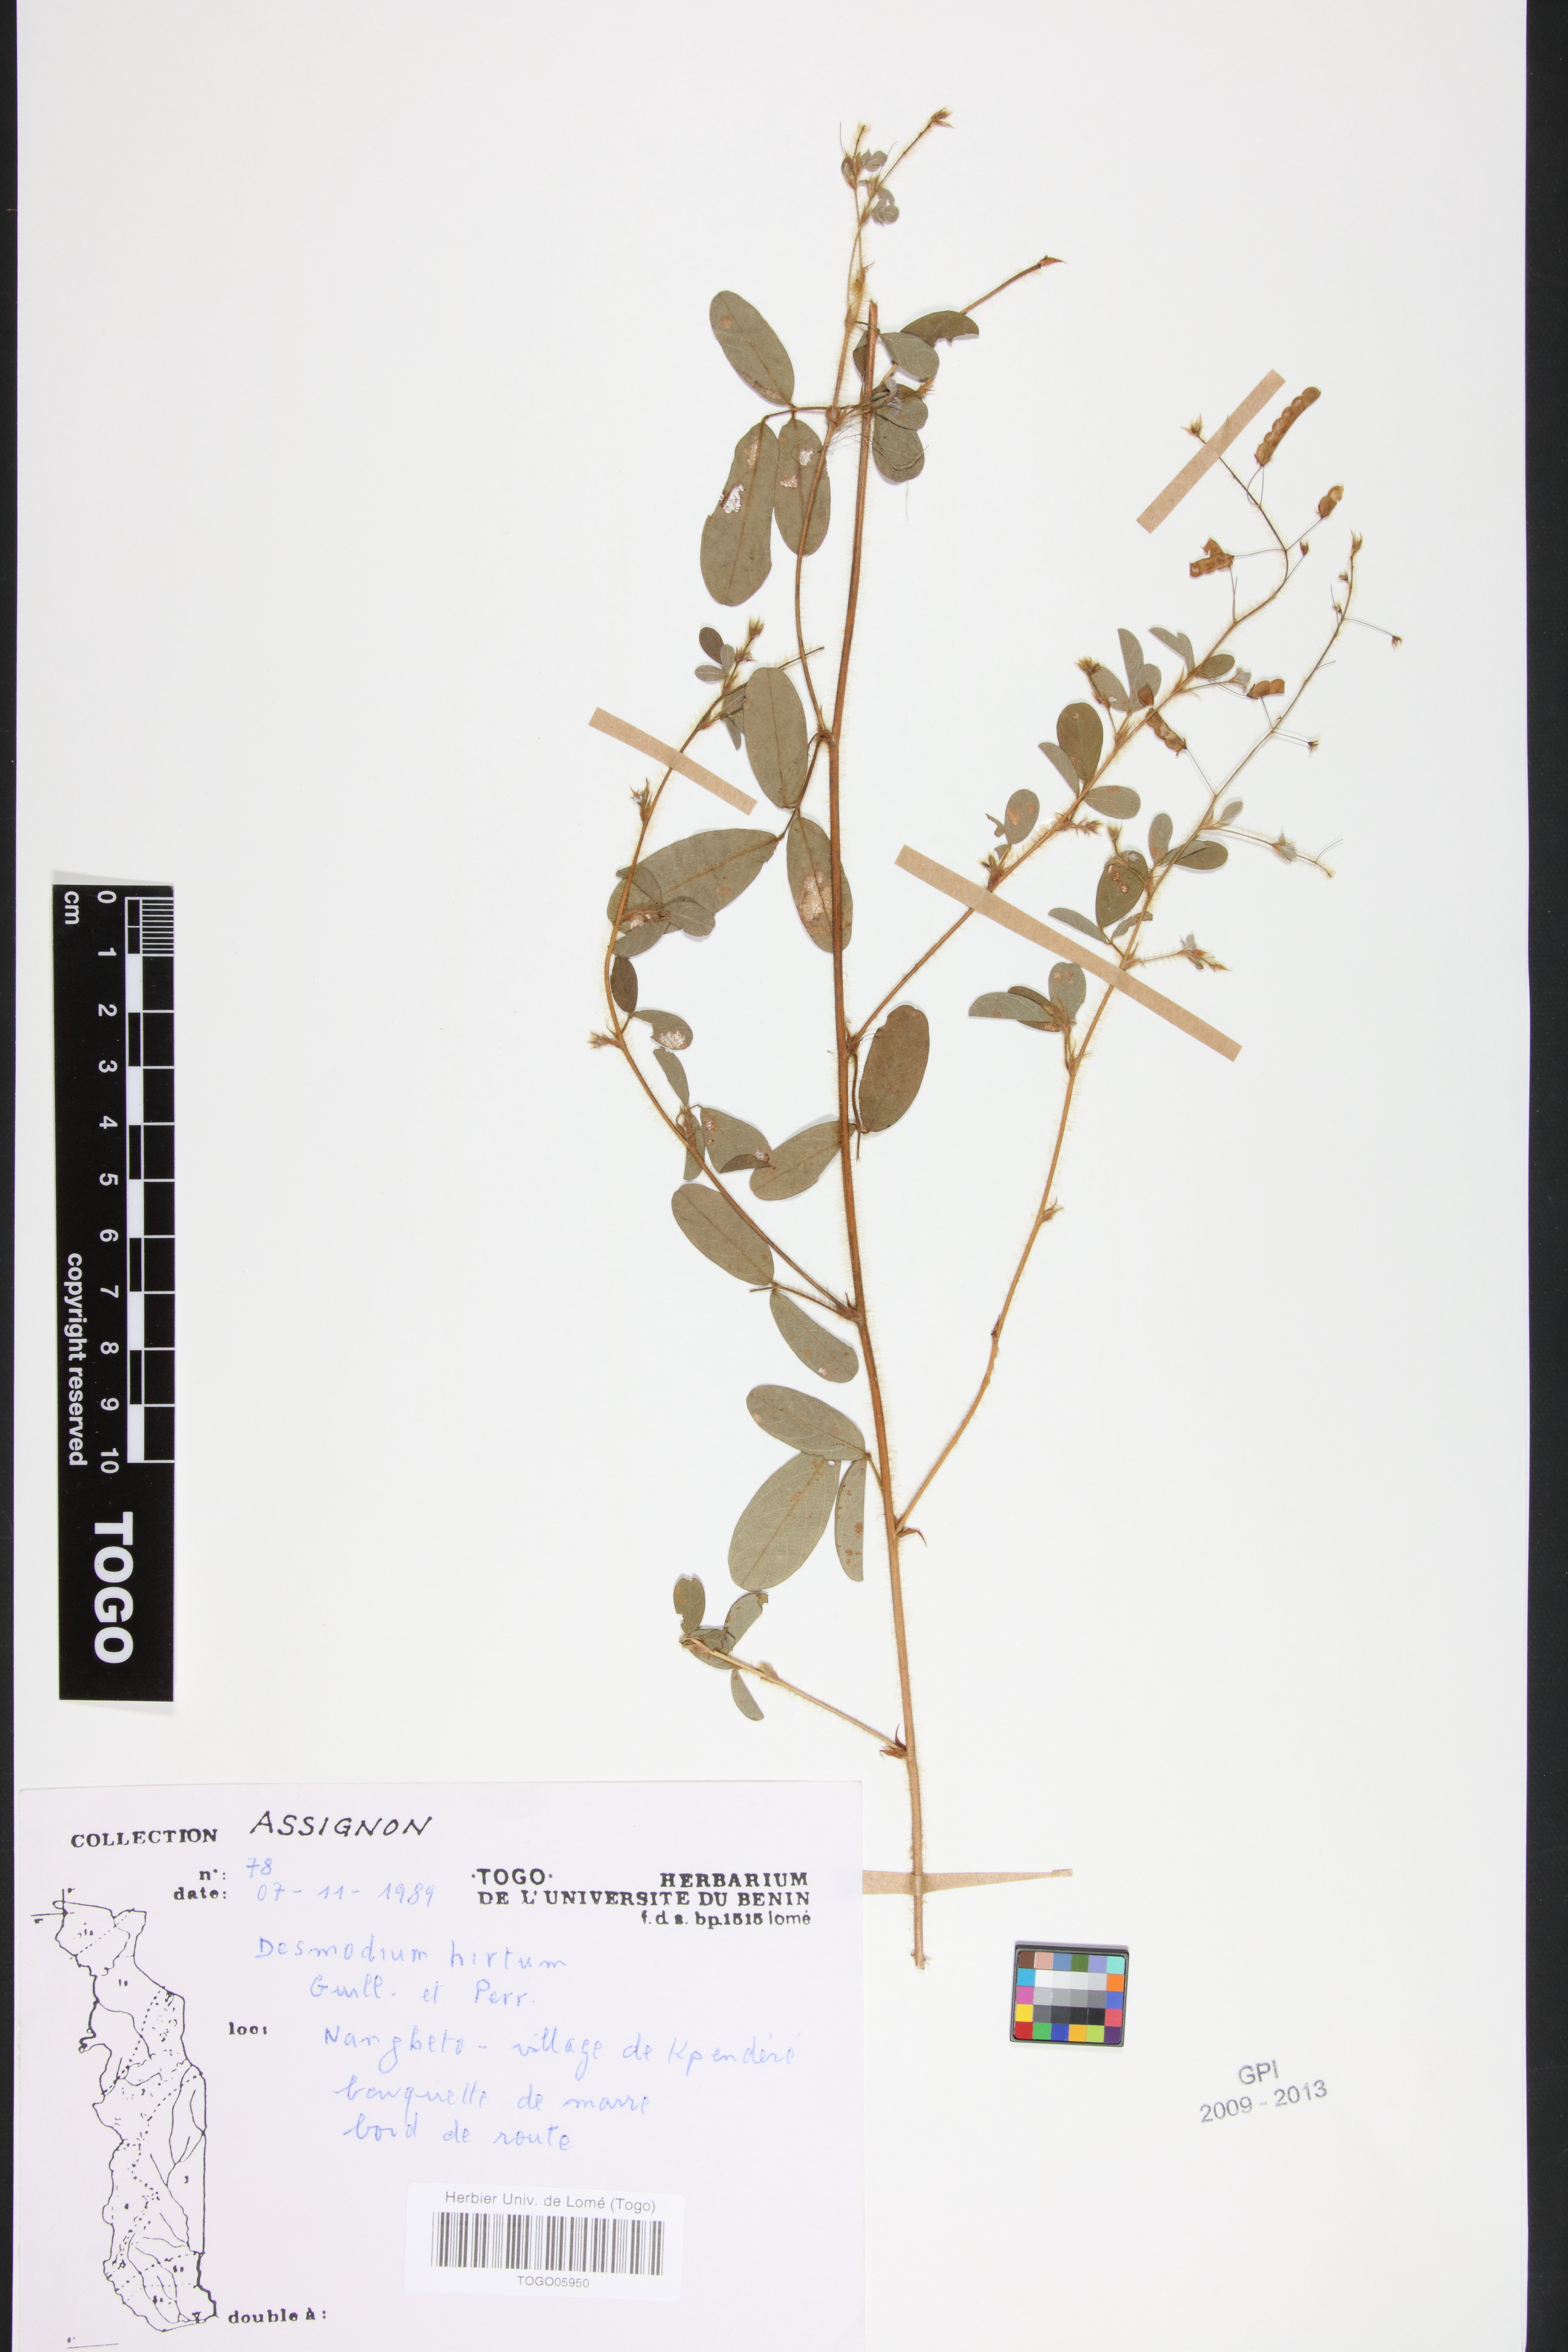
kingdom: Plantae
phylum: Tracheophyta
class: Magnoliopsida
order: Fabales
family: Fabaceae
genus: Grona
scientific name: Grona hirta
